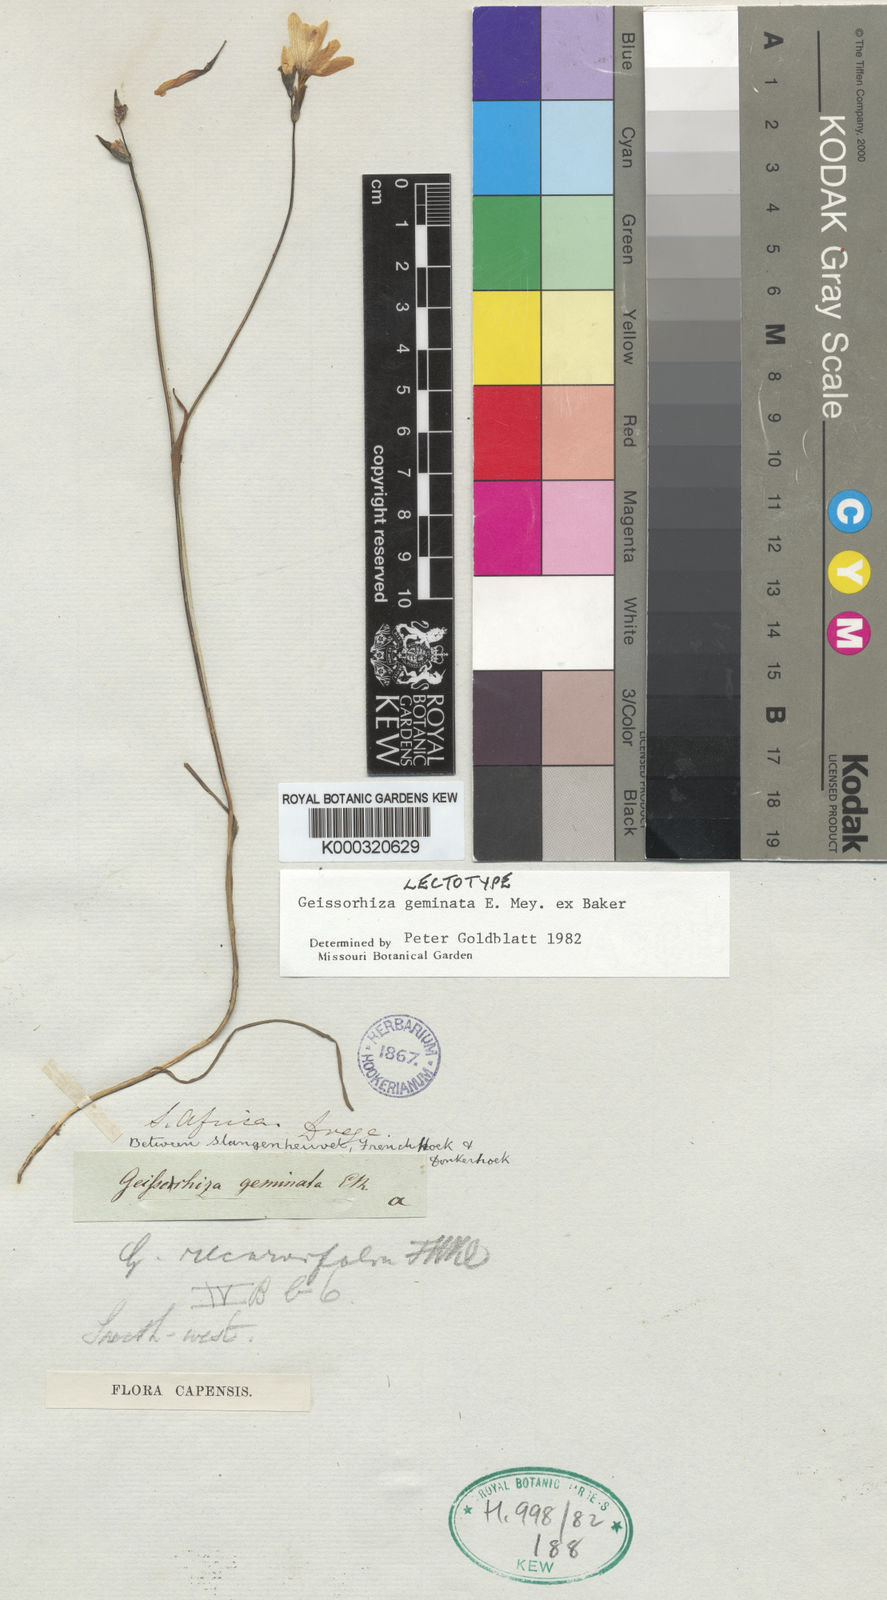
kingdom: Plantae
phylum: Tracheophyta
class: Liliopsida
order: Asparagales
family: Iridaceae
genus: Geissorhiza
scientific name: Geissorhiza geminata
